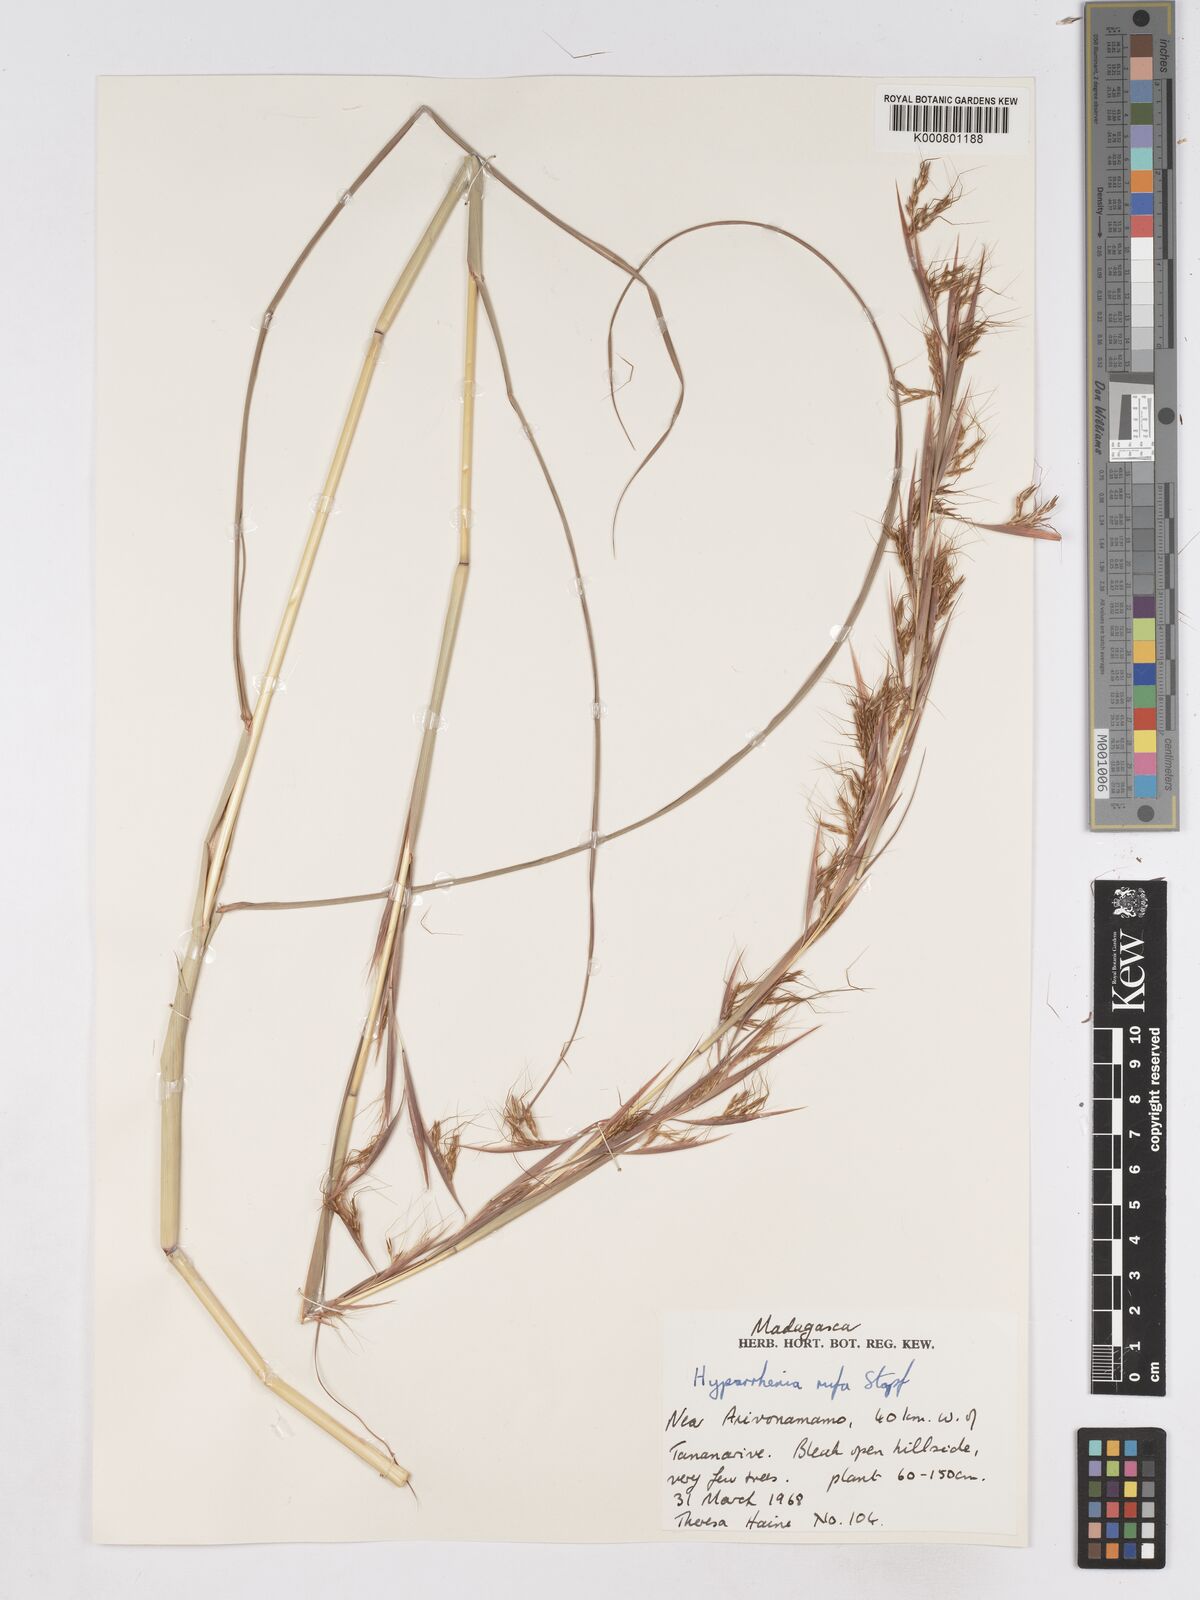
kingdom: Plantae
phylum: Tracheophyta
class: Liliopsida
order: Poales
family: Poaceae
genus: Hyparrhenia
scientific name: Hyparrhenia rufa
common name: Jaraguagrass
